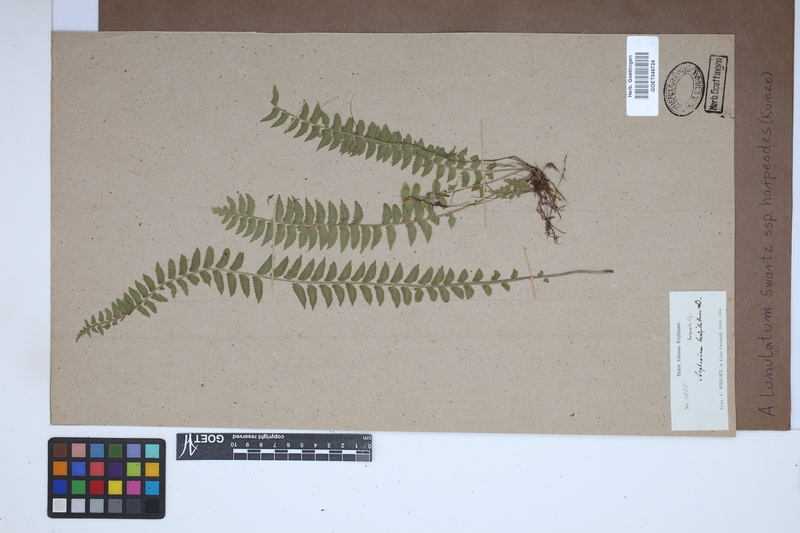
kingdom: Plantae
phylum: Tracheophyta
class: Polypodiopsida
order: Polypodiales
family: Aspleniaceae
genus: Asplenium
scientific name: Asplenium harpeodes
